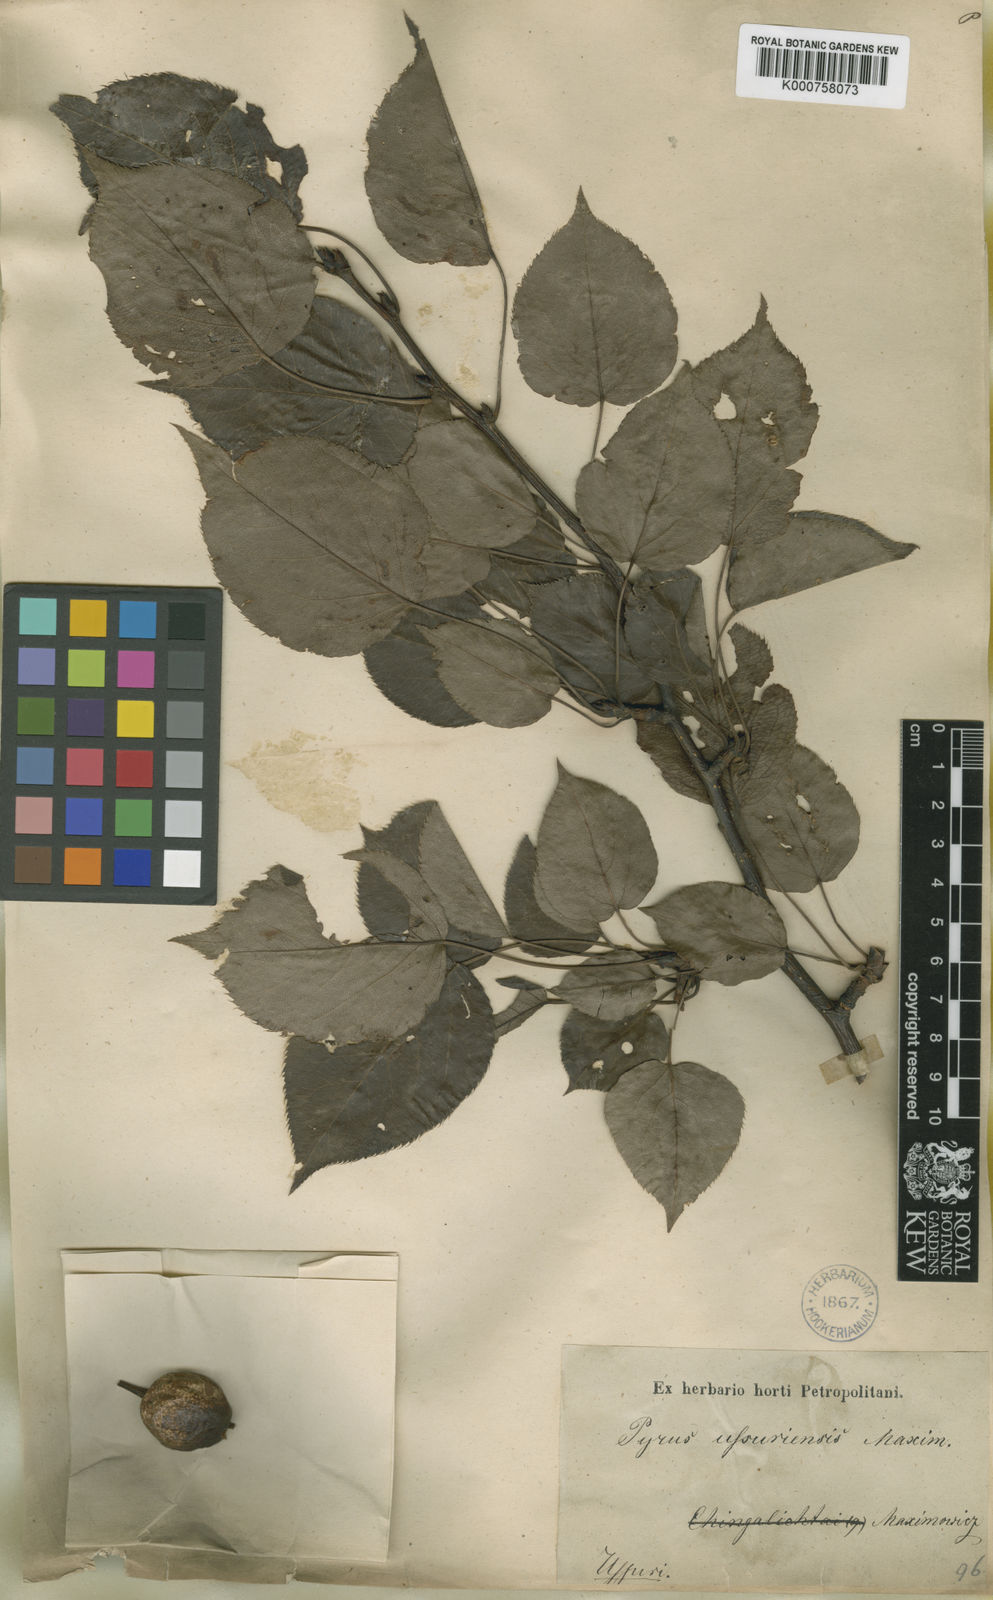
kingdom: Plantae
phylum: Tracheophyta
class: Magnoliopsida
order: Rosales
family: Rosaceae
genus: Pyrus
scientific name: Pyrus ussuriensis
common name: Harbin pear
